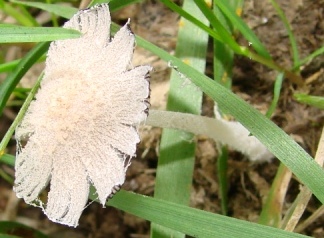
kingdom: Fungi
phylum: Basidiomycota
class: Agaricomycetes
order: Agaricales
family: Psathyrellaceae
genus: Coprinopsis
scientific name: Coprinopsis nivea
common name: snehvid blækhat
